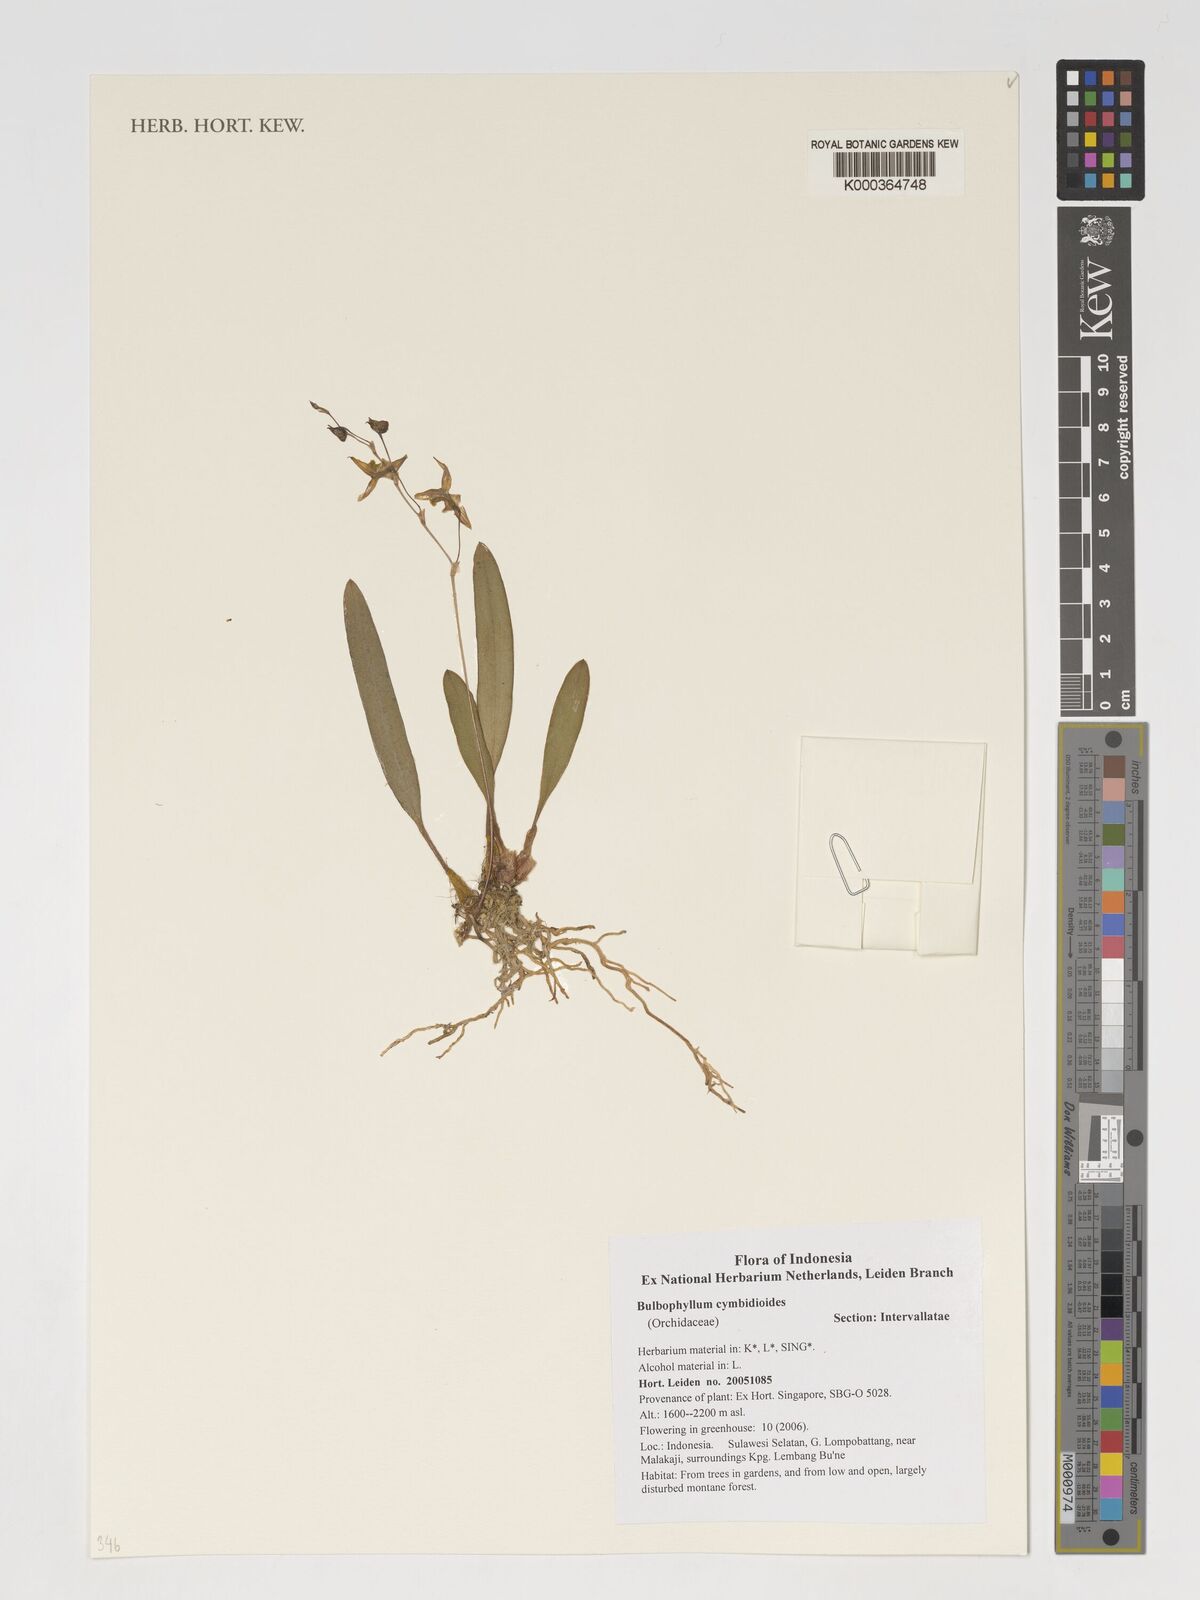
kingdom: Plantae
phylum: Tracheophyta
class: Liliopsida
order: Asparagales
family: Orchidaceae
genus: Bulbophyllum
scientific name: Bulbophyllum cymbidioides
